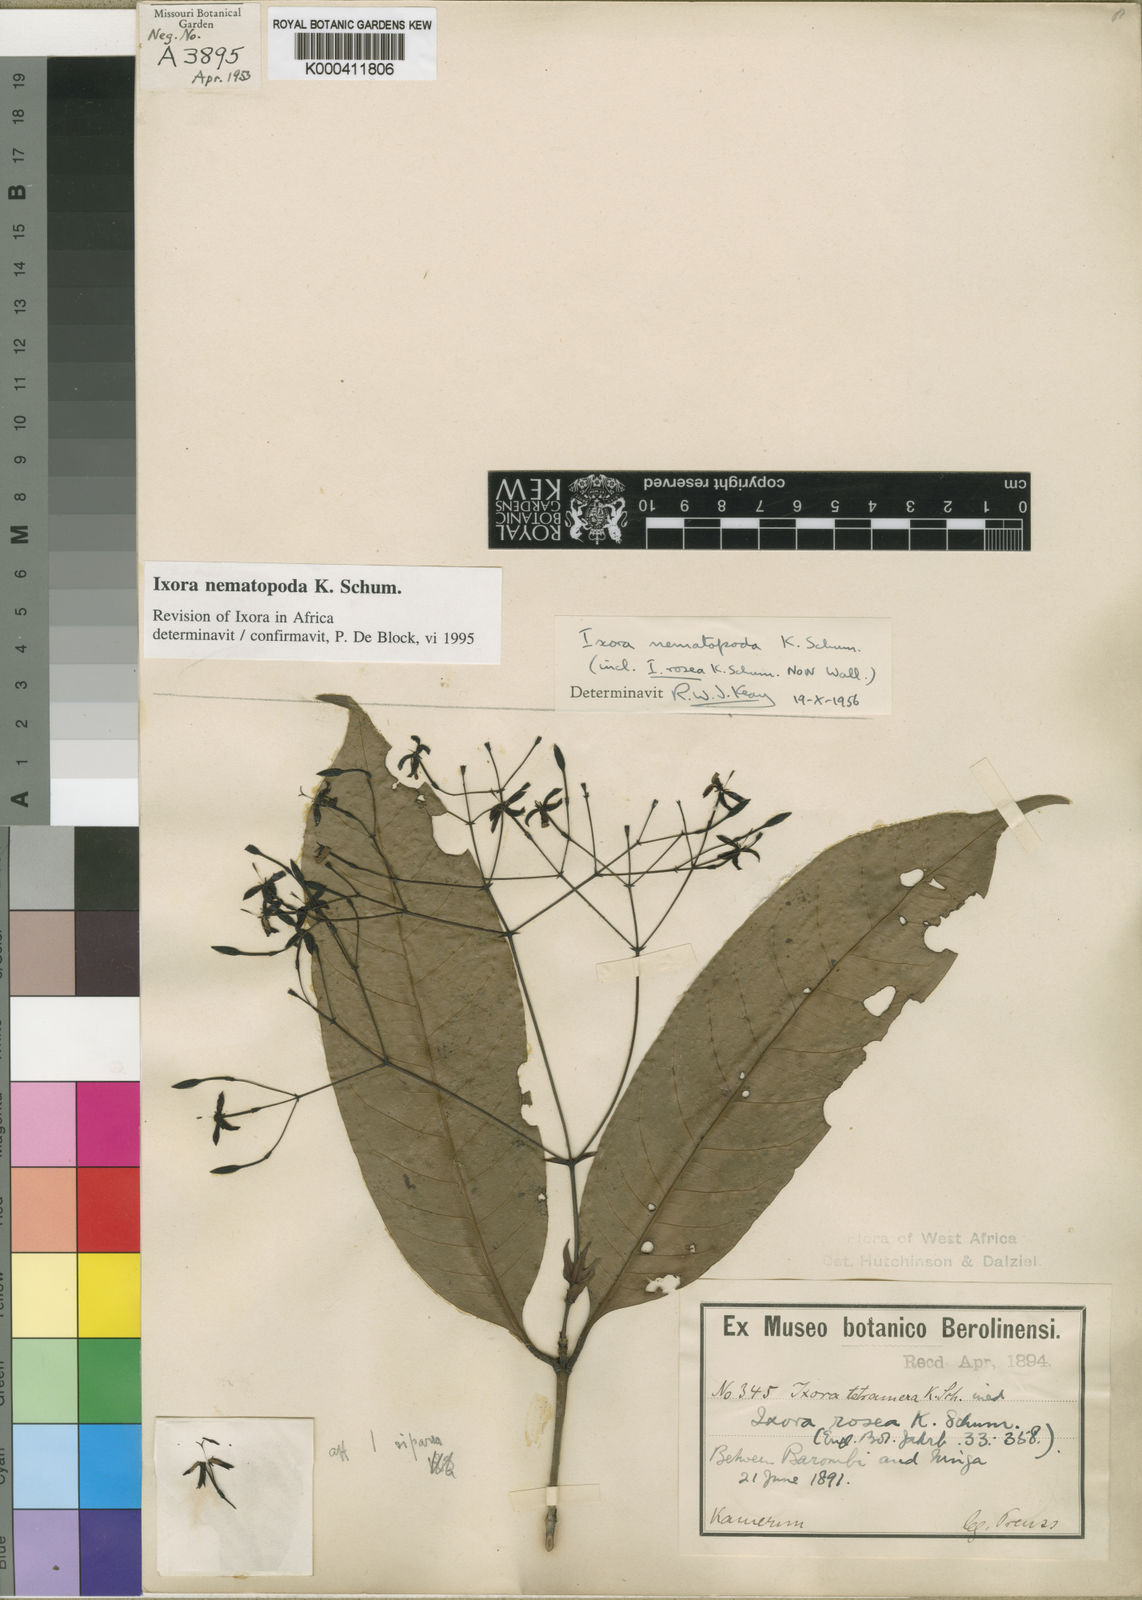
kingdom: Plantae
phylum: Tracheophyta
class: Magnoliopsida
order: Gentianales
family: Rubiaceae
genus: Ixora
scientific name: Ixora nematopoda
